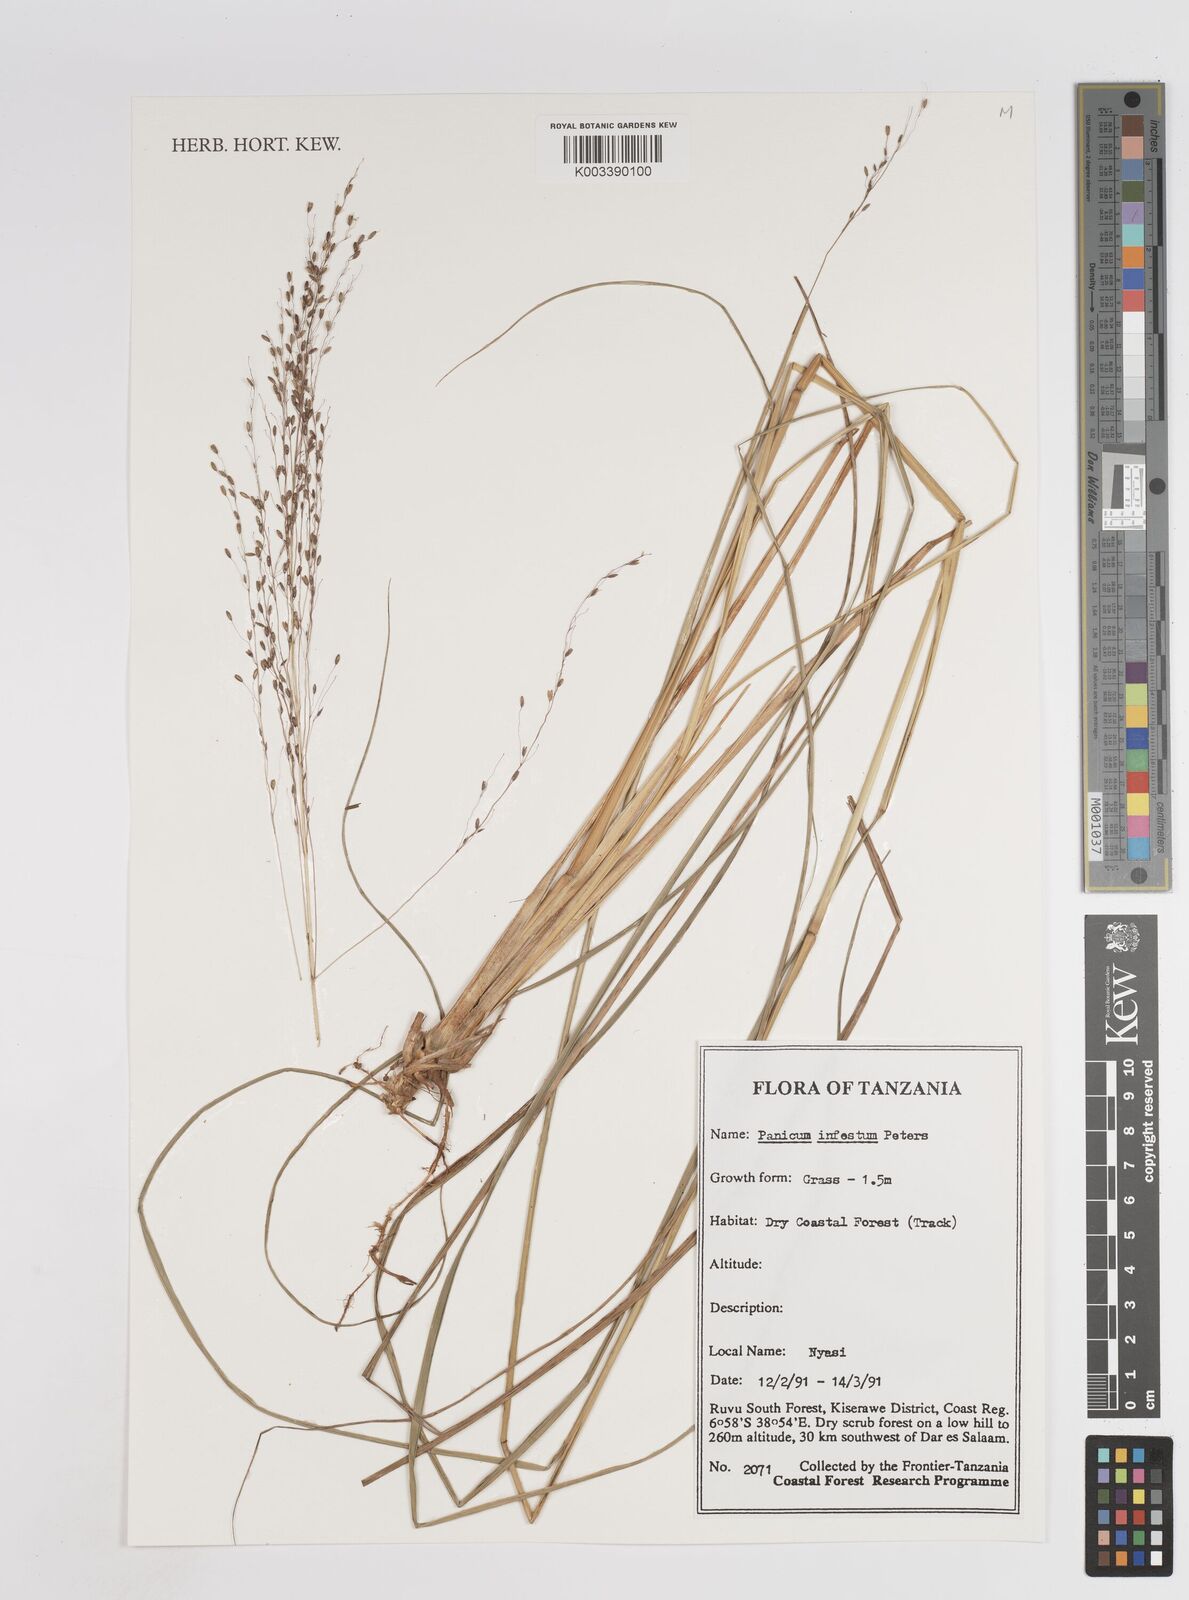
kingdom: Plantae
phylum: Tracheophyta
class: Liliopsida
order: Poales
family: Poaceae
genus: Megathyrsus
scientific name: Megathyrsus infestus
